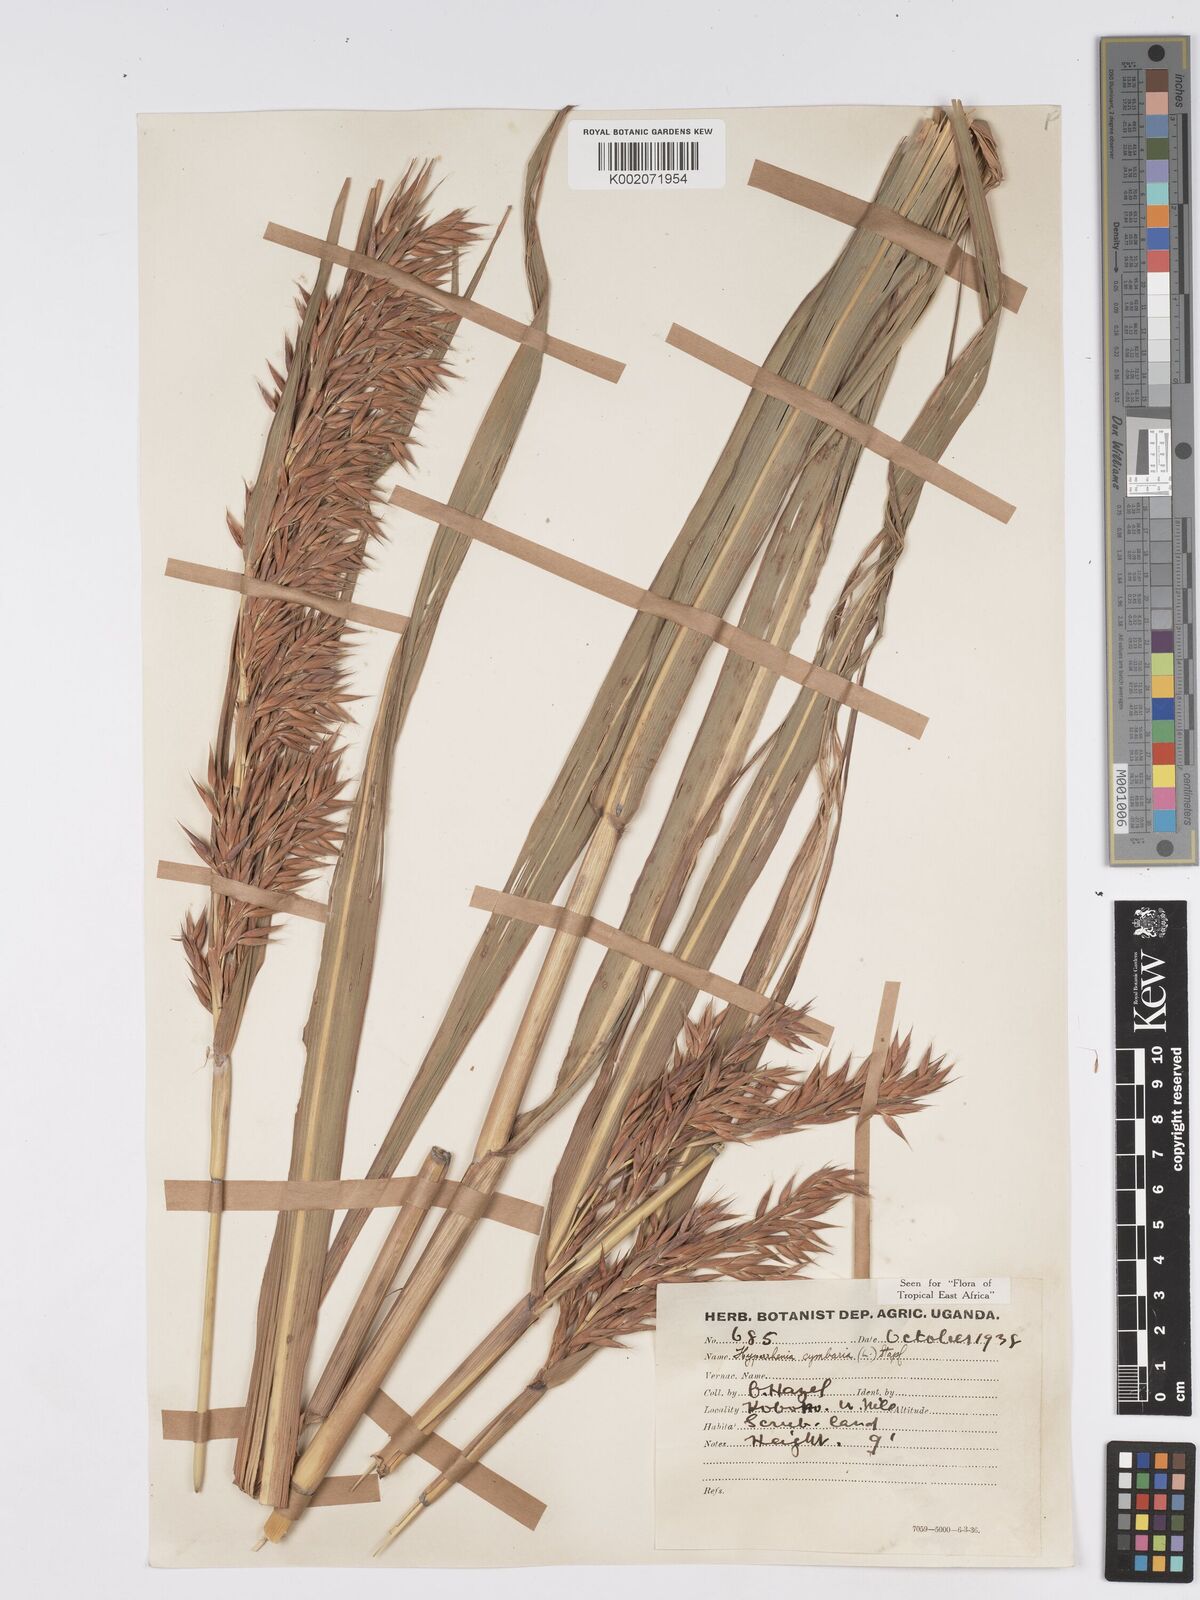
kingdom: Plantae
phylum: Tracheophyta
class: Liliopsida
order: Poales
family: Poaceae
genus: Hyparrhenia
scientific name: Hyparrhenia cymbaria
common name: Boat thatching grass
